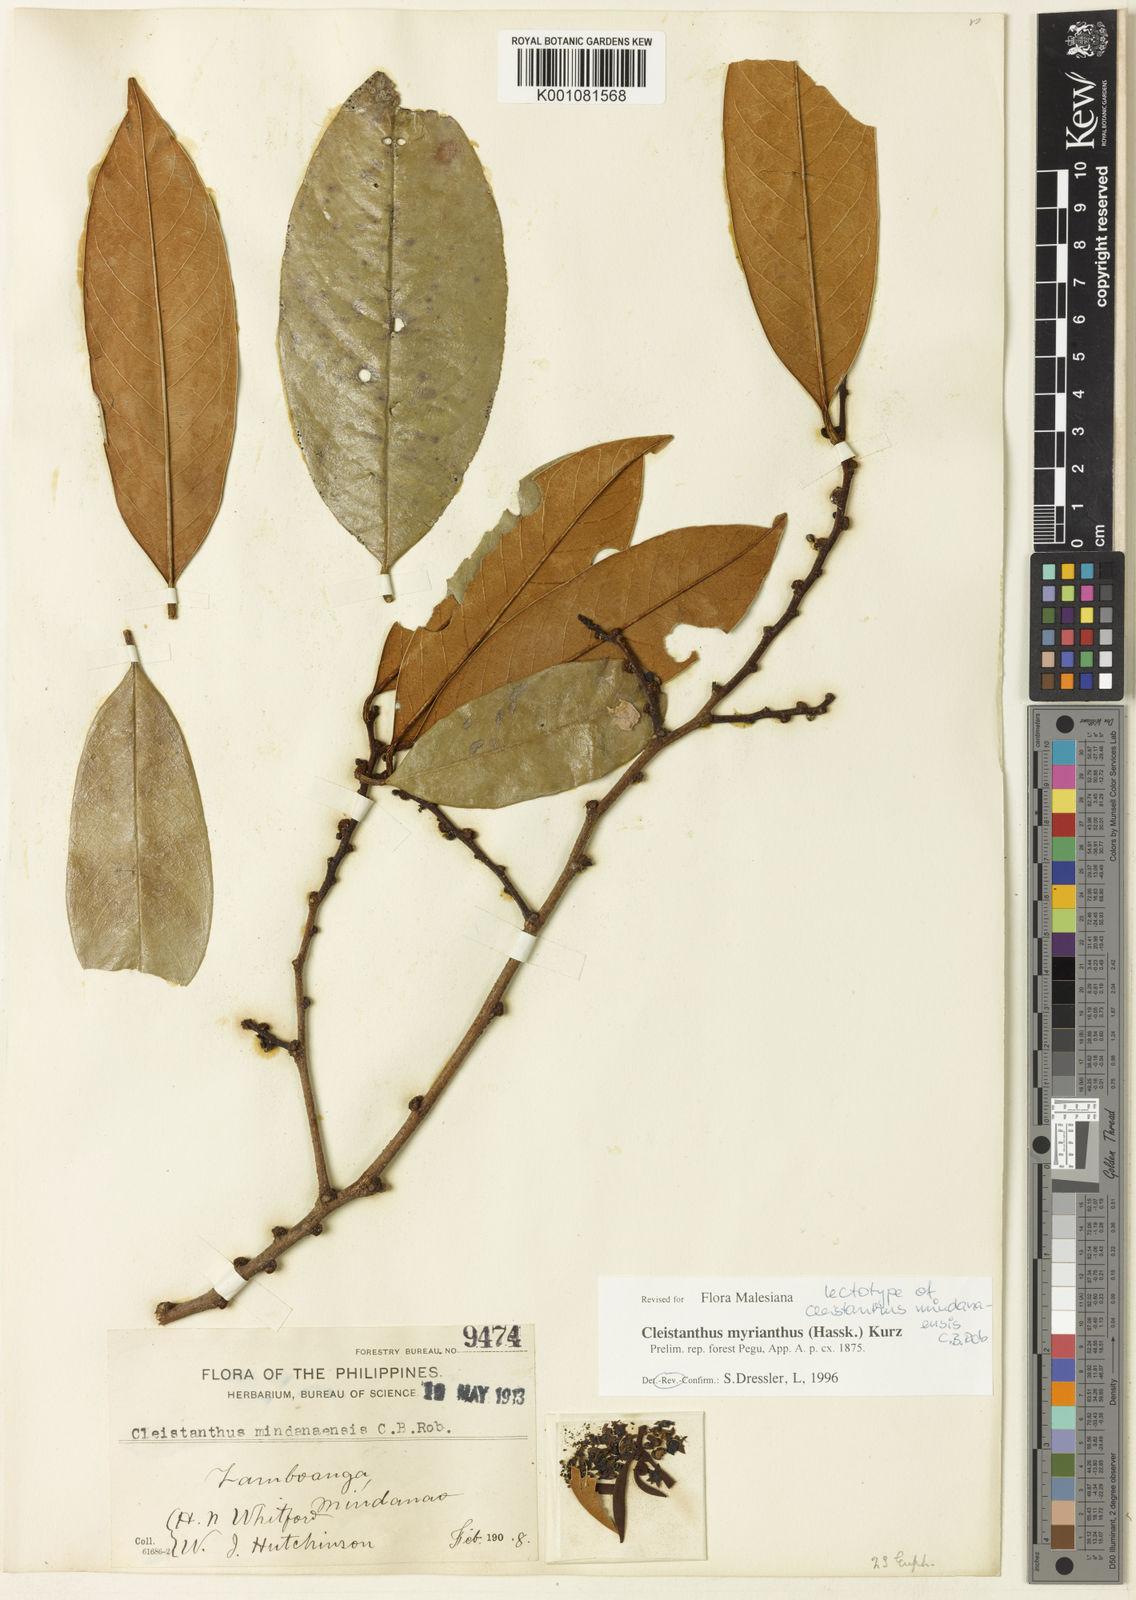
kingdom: Plantae
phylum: Tracheophyta
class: Magnoliopsida
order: Malpighiales
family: Phyllanthaceae
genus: Cleistanthus
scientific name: Cleistanthus oblongifolius
